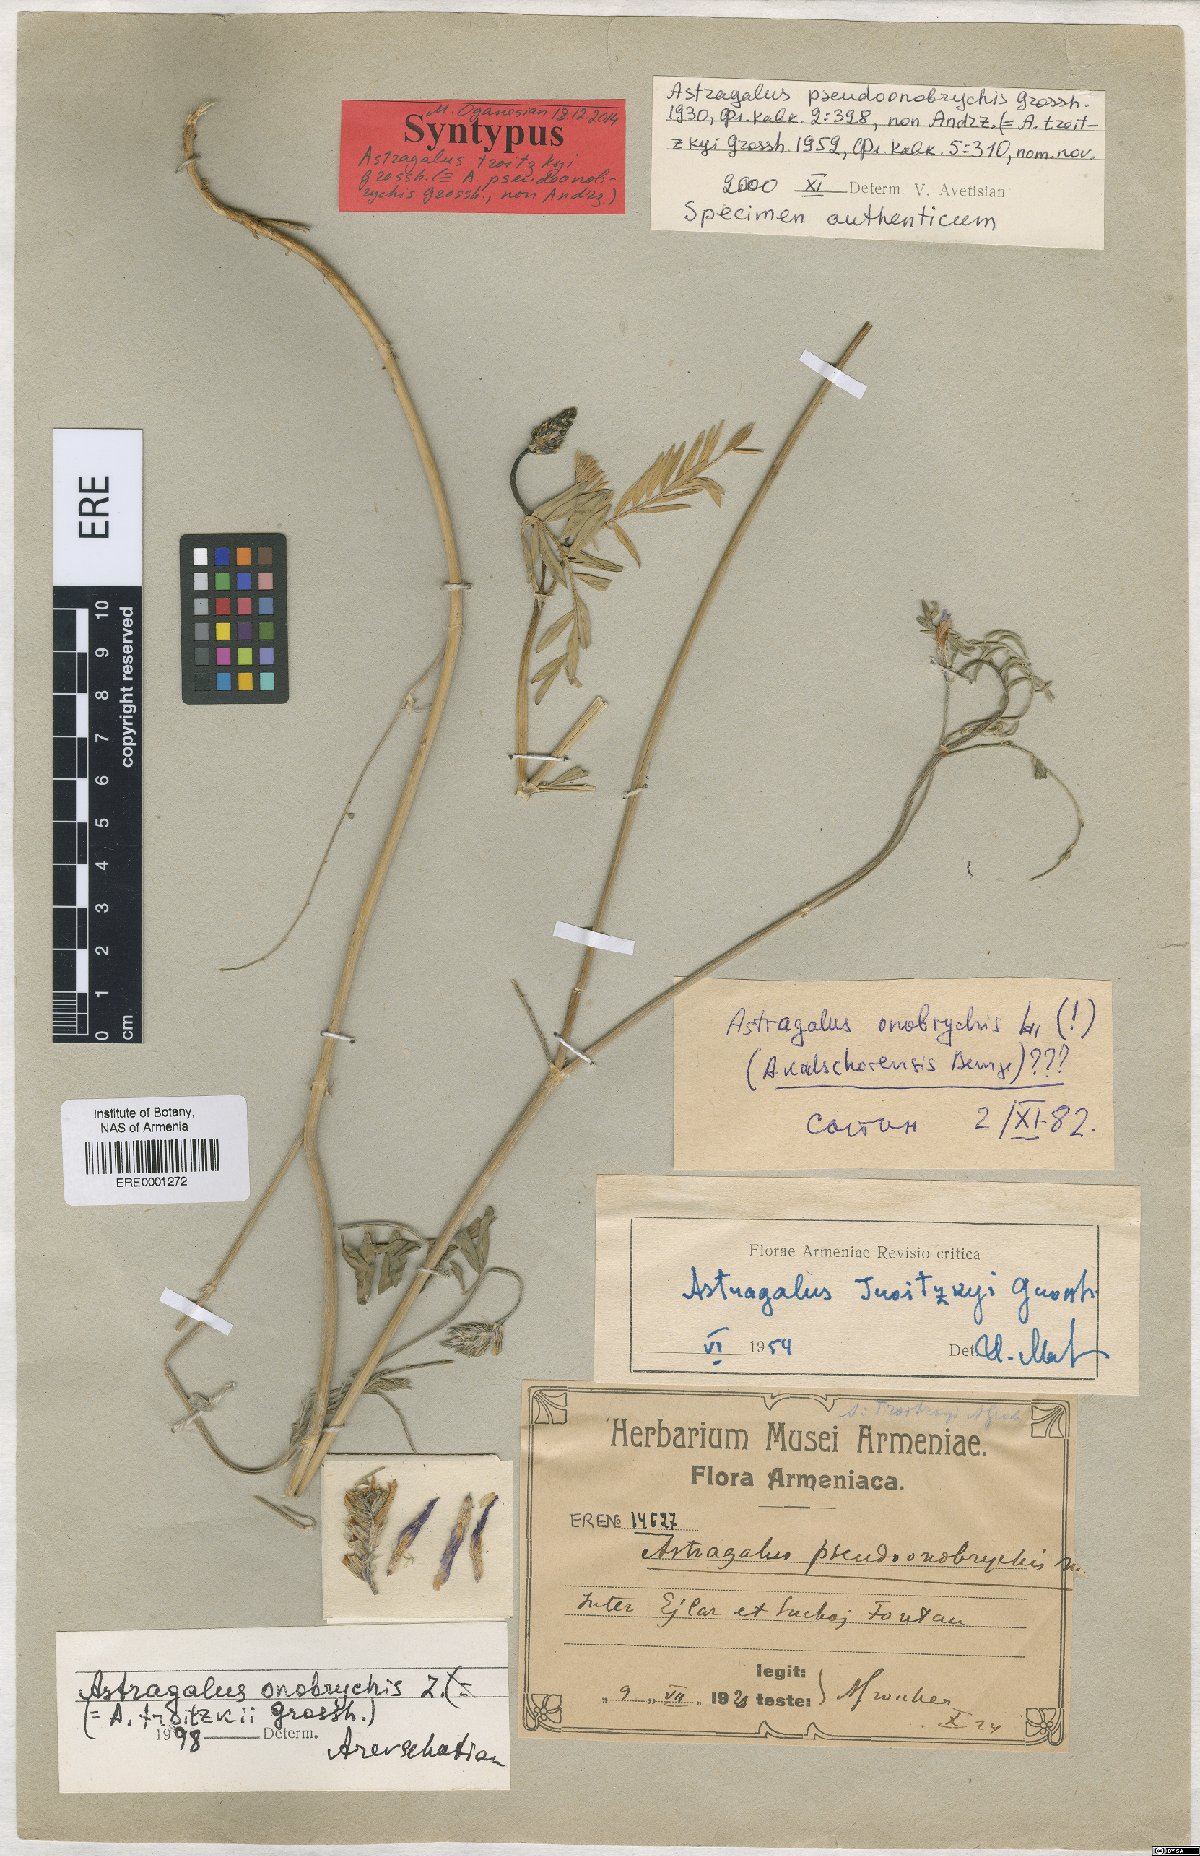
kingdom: Plantae
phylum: Tracheophyta
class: Magnoliopsida
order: Fabales
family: Fabaceae
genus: Astragalus
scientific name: Astragalus onobrychis
